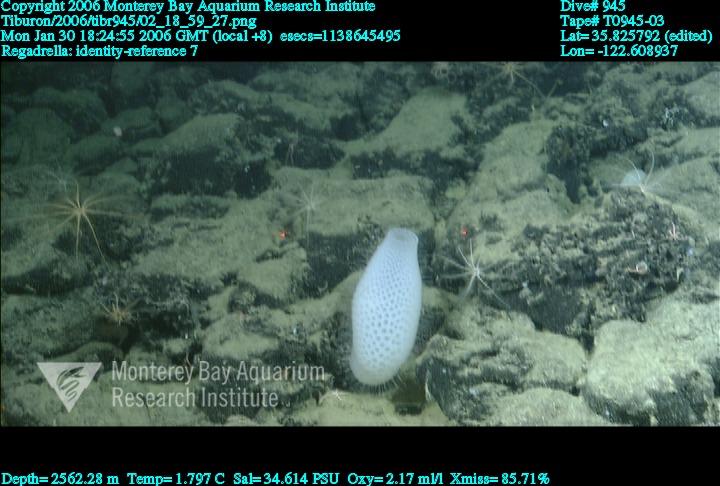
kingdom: Animalia
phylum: Porifera
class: Hexactinellida
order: Lyssacinosida
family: Euplectellidae
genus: Regadrella
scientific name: Regadrella
